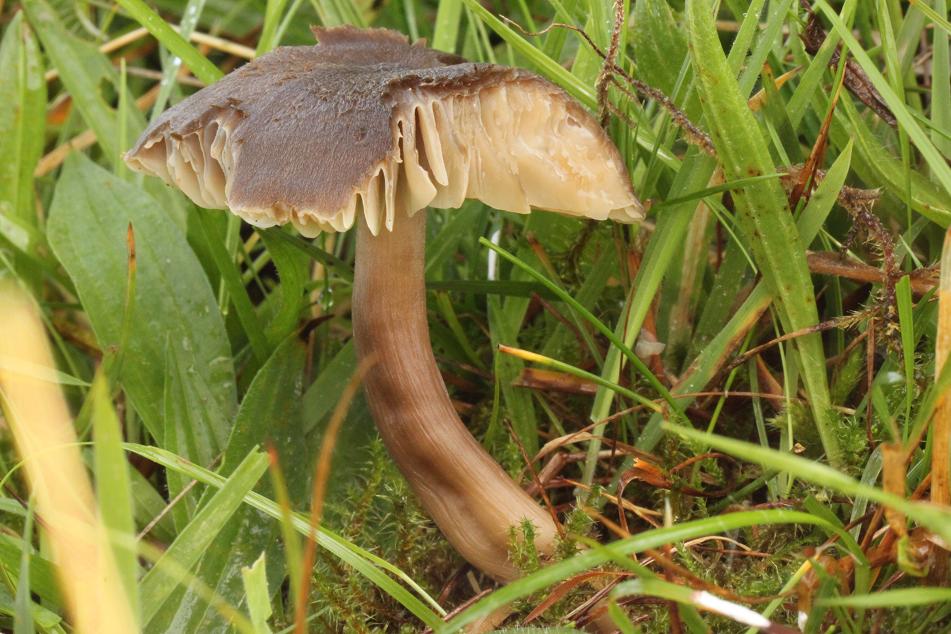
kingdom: Fungi
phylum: Basidiomycota
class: Agaricomycetes
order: Agaricales
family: Hygrophoraceae
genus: Neohygrocybe
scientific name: Neohygrocybe nitrata
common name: stinkende vokshat
